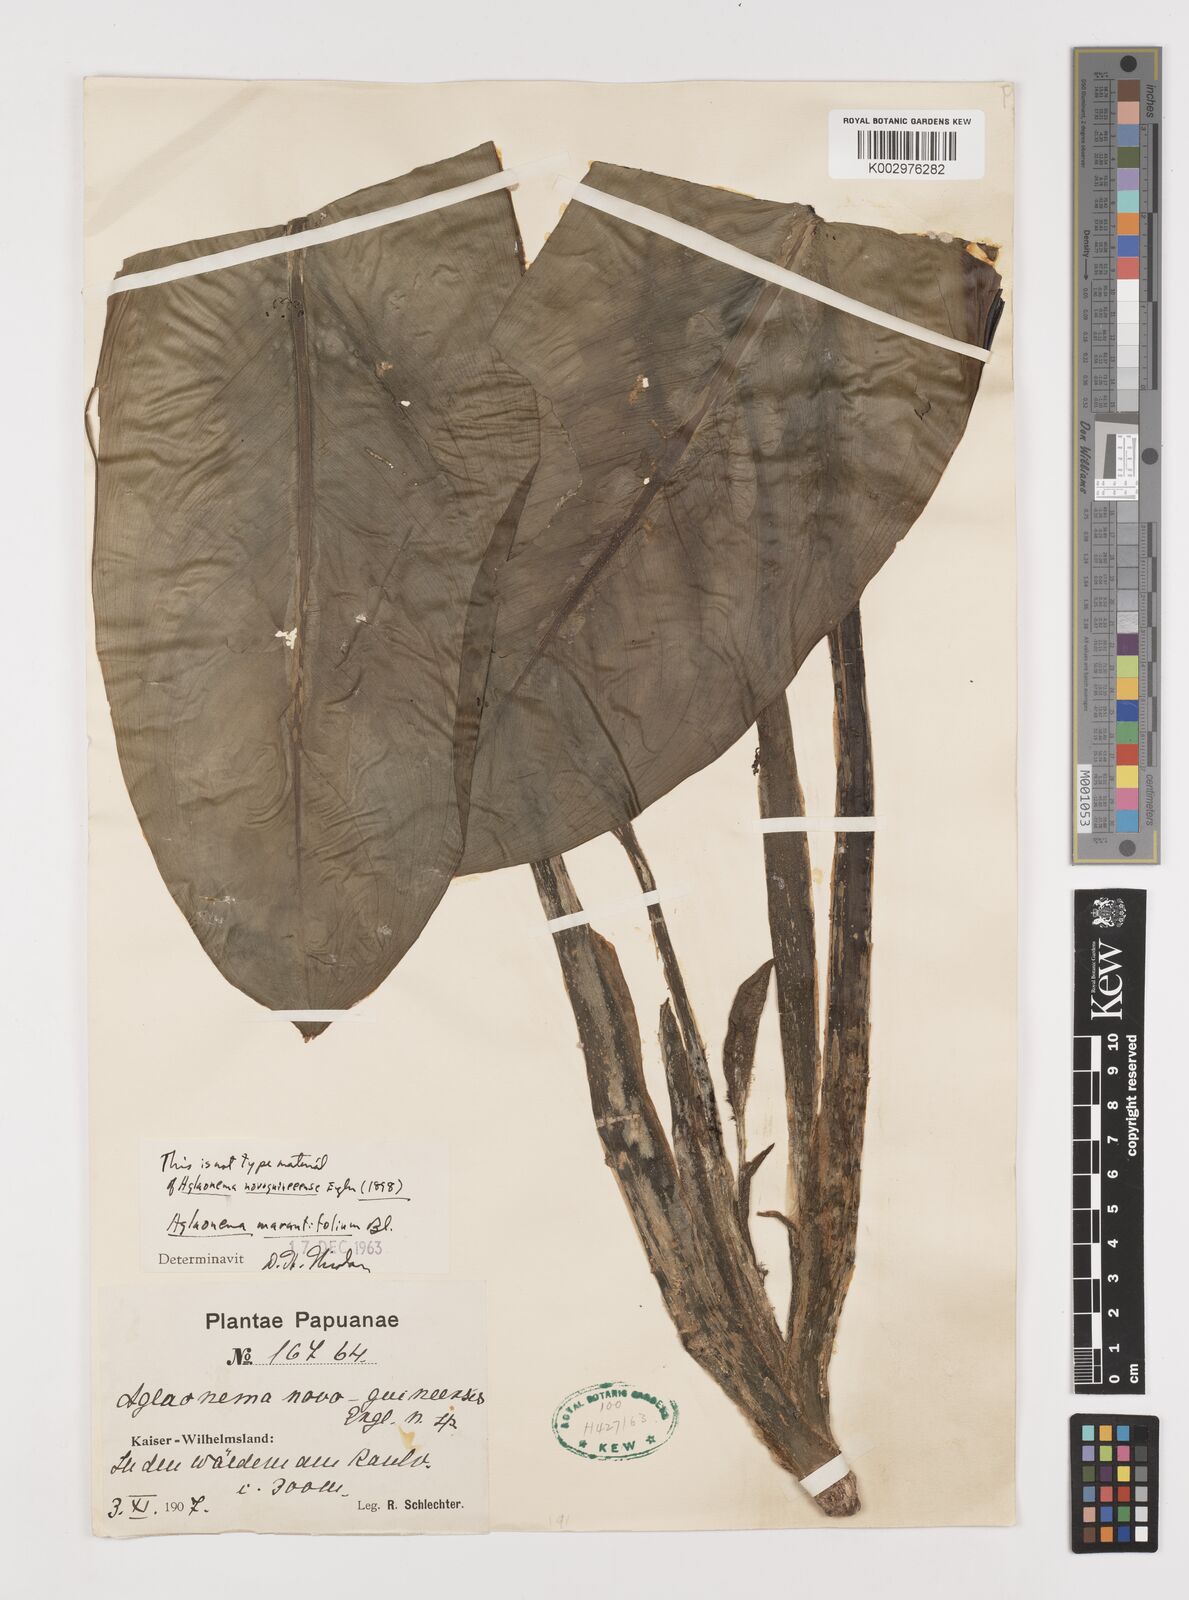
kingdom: Plantae
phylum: Tracheophyta
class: Liliopsida
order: Alismatales
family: Araceae
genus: Aglaonema
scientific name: Aglaonema marantifolium
